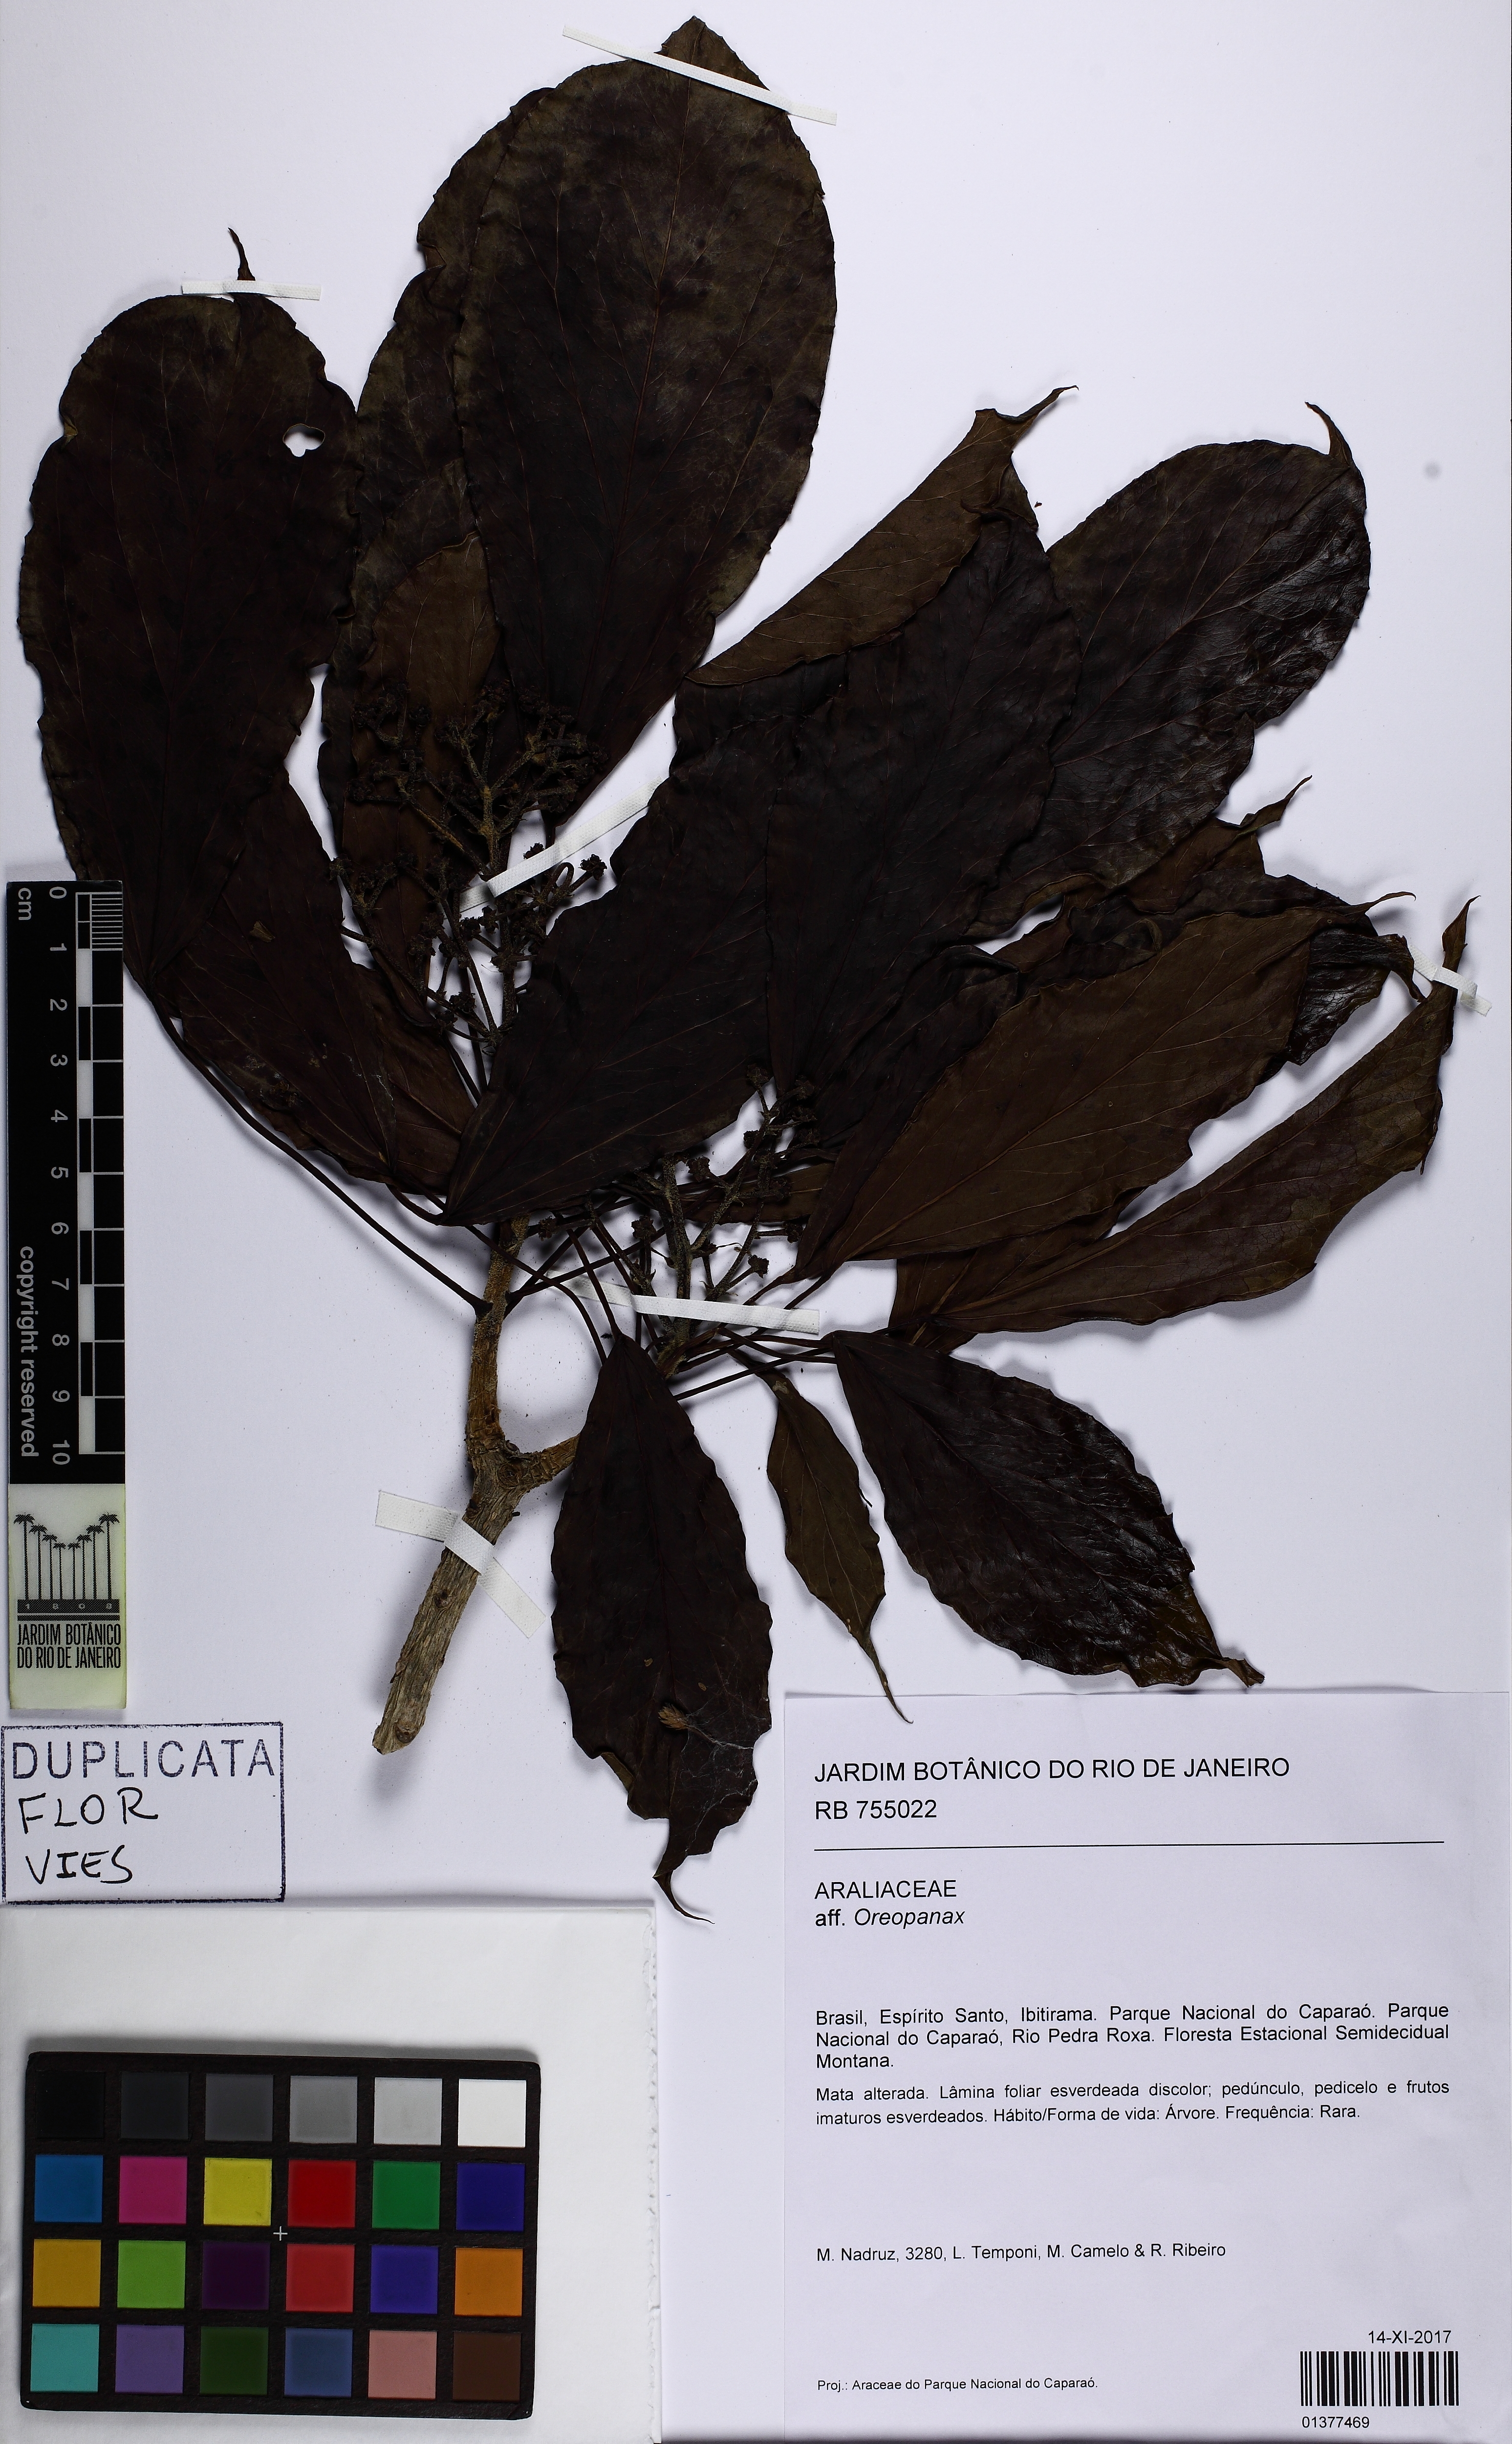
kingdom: Plantae
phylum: Tracheophyta
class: Magnoliopsida
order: Apiales
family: Araliaceae
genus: Oreopanax
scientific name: Oreopanax
